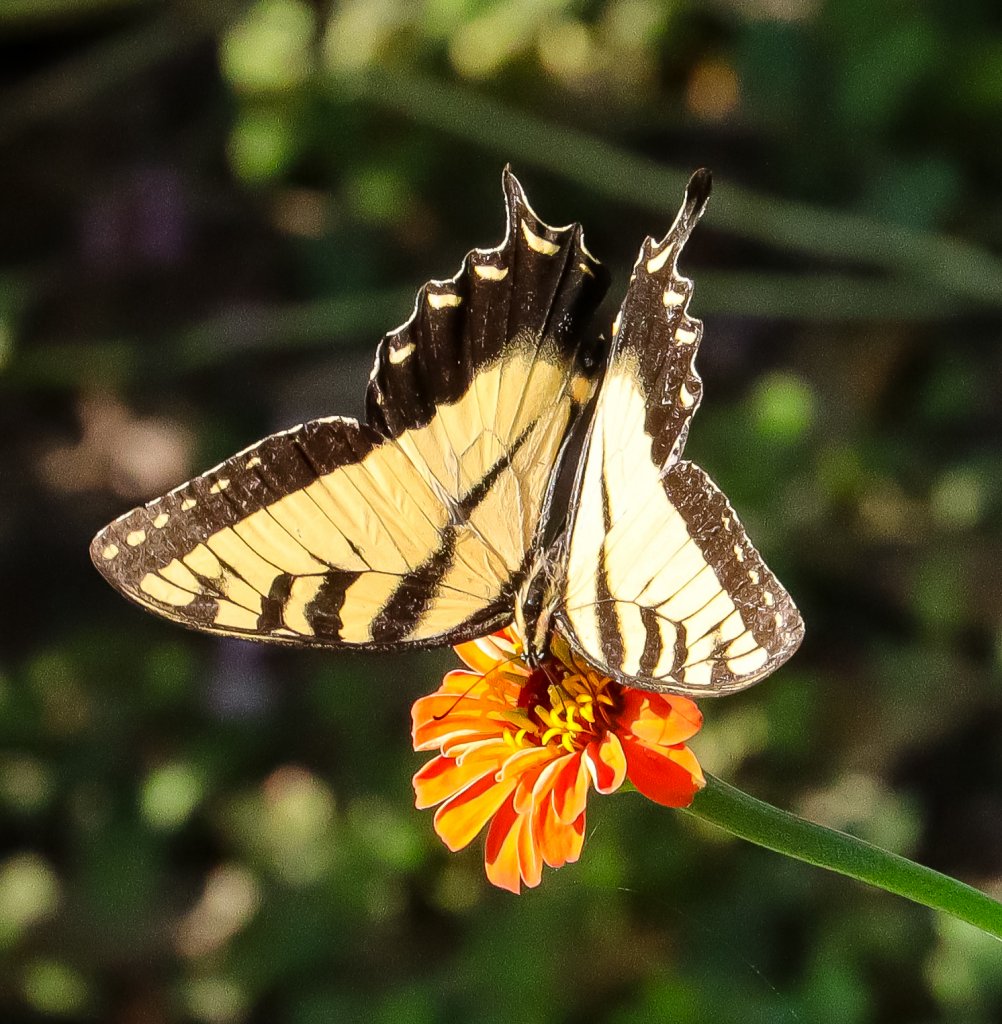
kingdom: Animalia
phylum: Arthropoda
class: Insecta
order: Lepidoptera
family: Papilionidae
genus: Pterourus
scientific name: Pterourus glaucus
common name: Eastern Tiger Swallowtail
